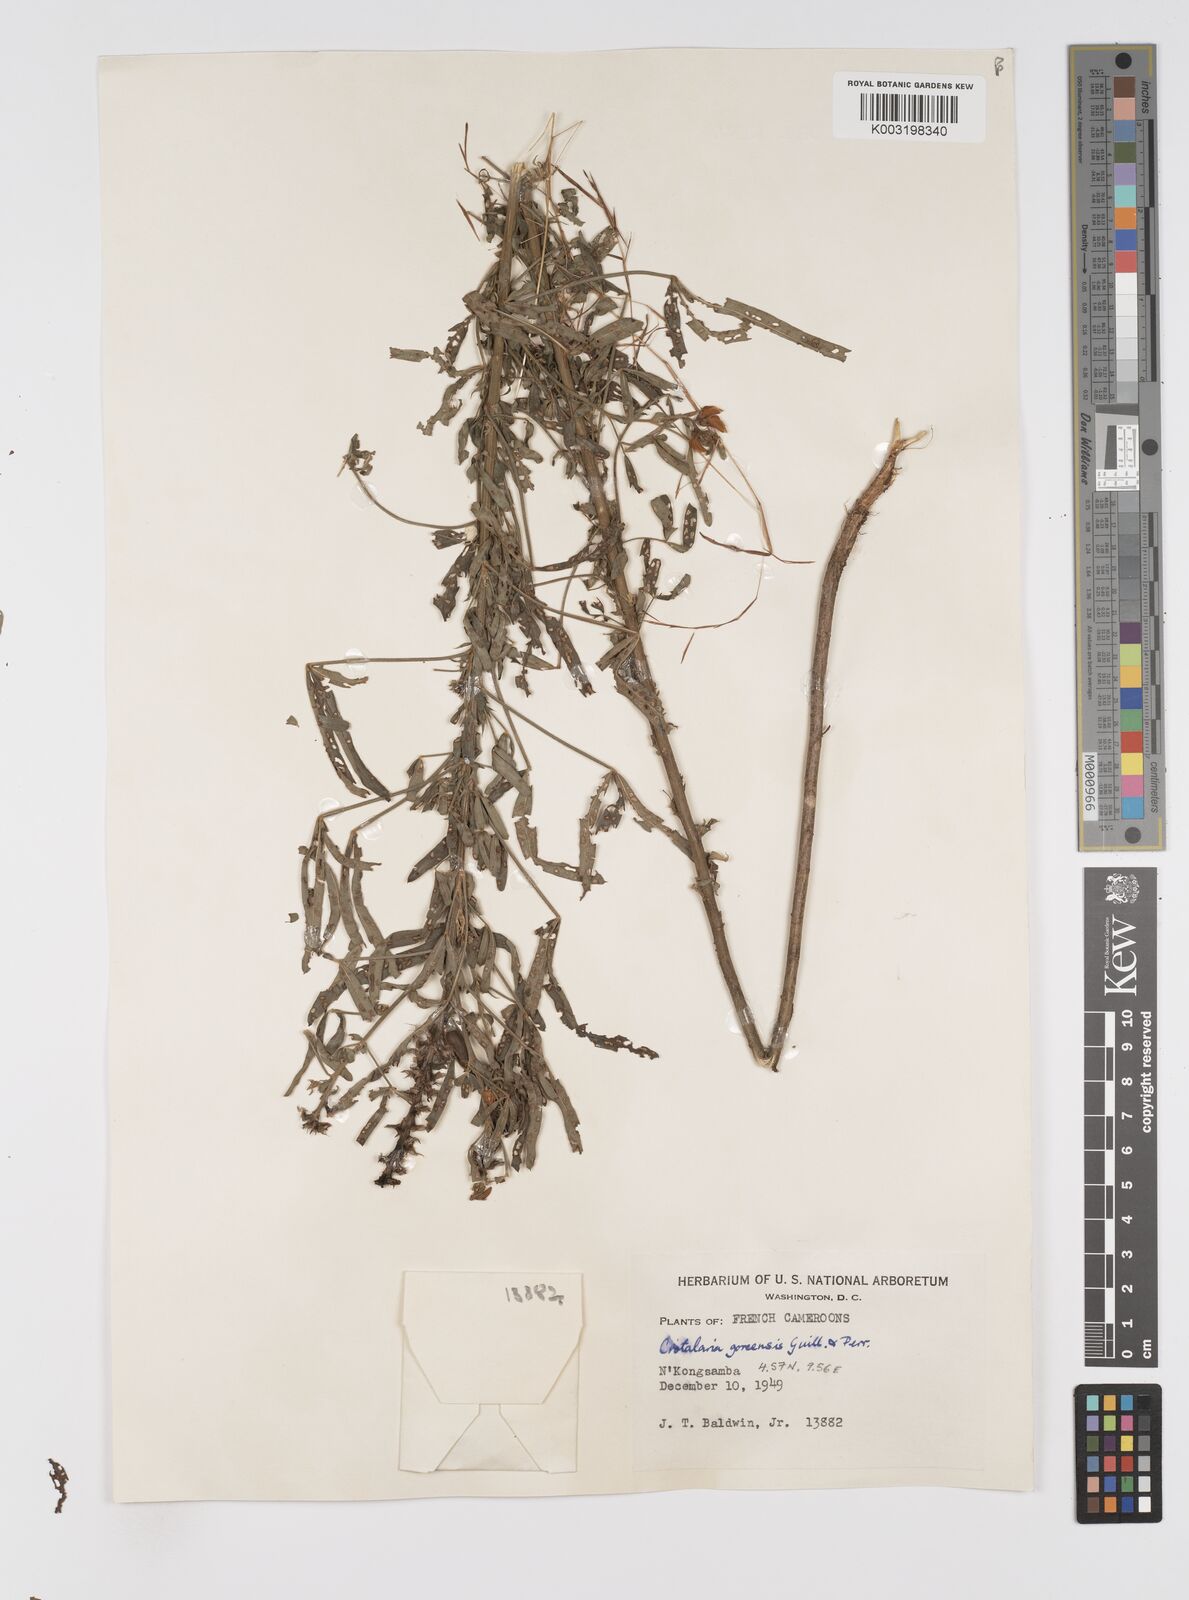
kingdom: Plantae
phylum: Tracheophyta
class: Magnoliopsida
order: Fabales
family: Fabaceae
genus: Crotalaria
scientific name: Crotalaria goreensis
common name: Gambia-pea
